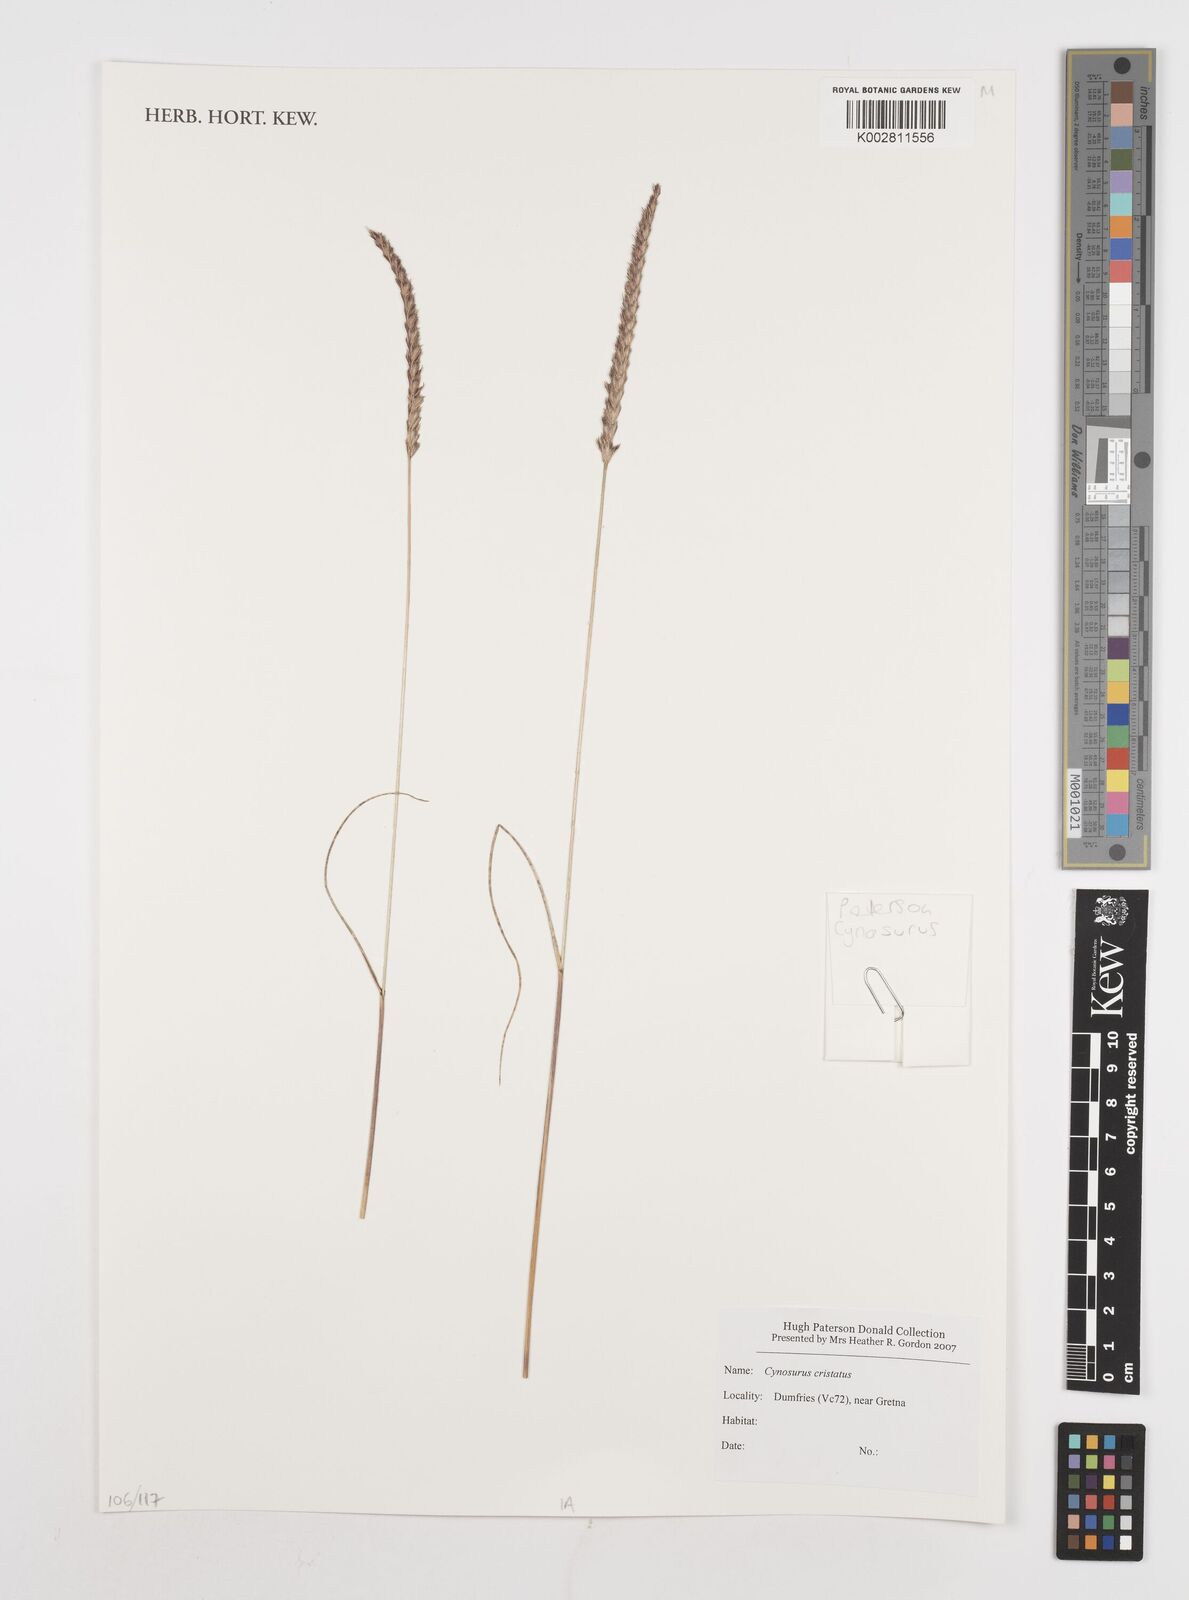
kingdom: Plantae
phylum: Tracheophyta
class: Liliopsida
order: Poales
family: Poaceae
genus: Cynosurus
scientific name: Cynosurus cristatus
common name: Crested dog's-tail
